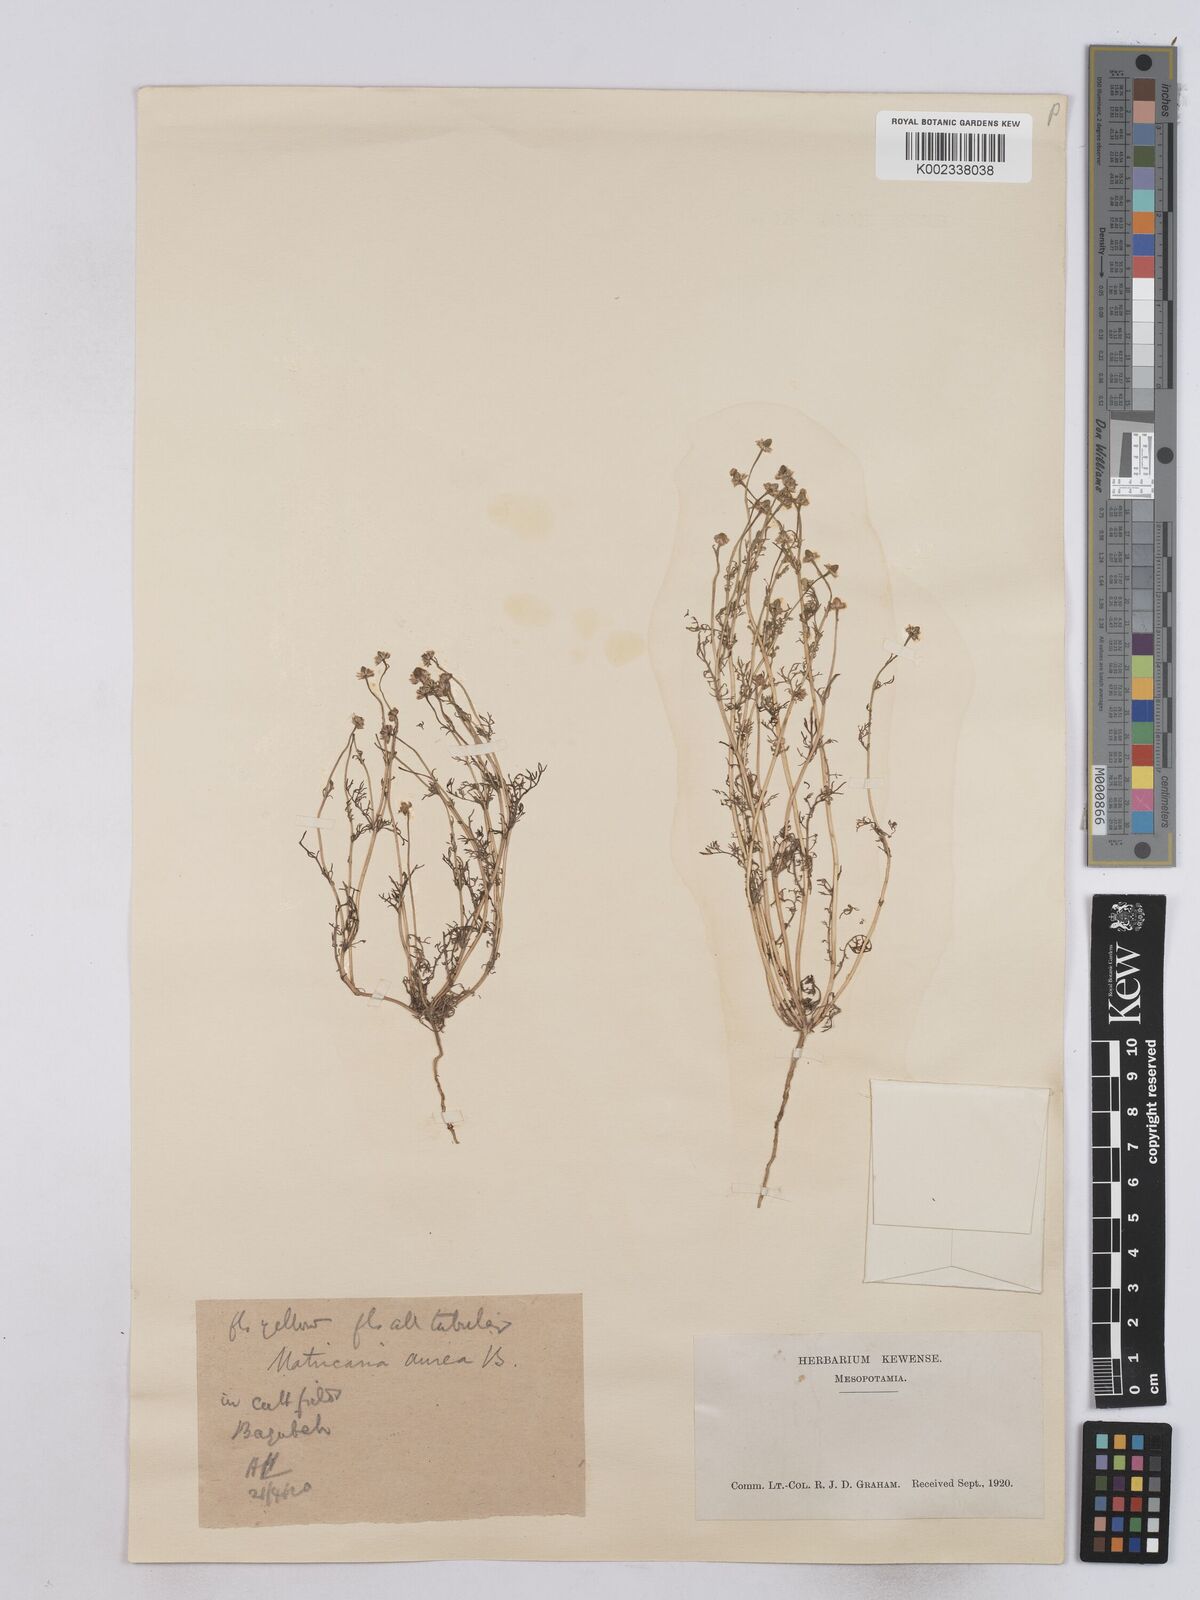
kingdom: Plantae
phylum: Tracheophyta
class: Magnoliopsida
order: Asterales
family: Asteraceae
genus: Matricaria
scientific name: Matricaria aurea
